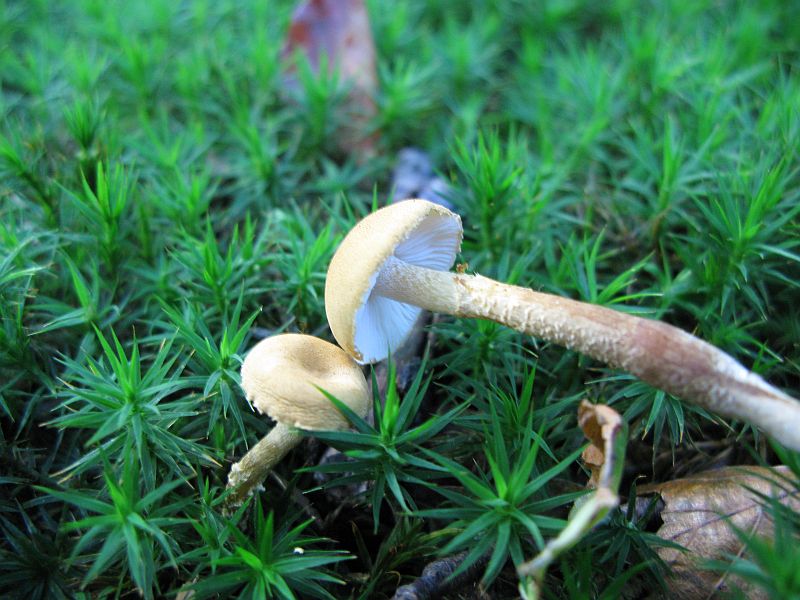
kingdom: Fungi
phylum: Basidiomycota
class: Agaricomycetes
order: Agaricales
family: Tricholomataceae
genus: Cystoderma
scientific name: Cystoderma amianthinum
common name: okkergul grynhat
